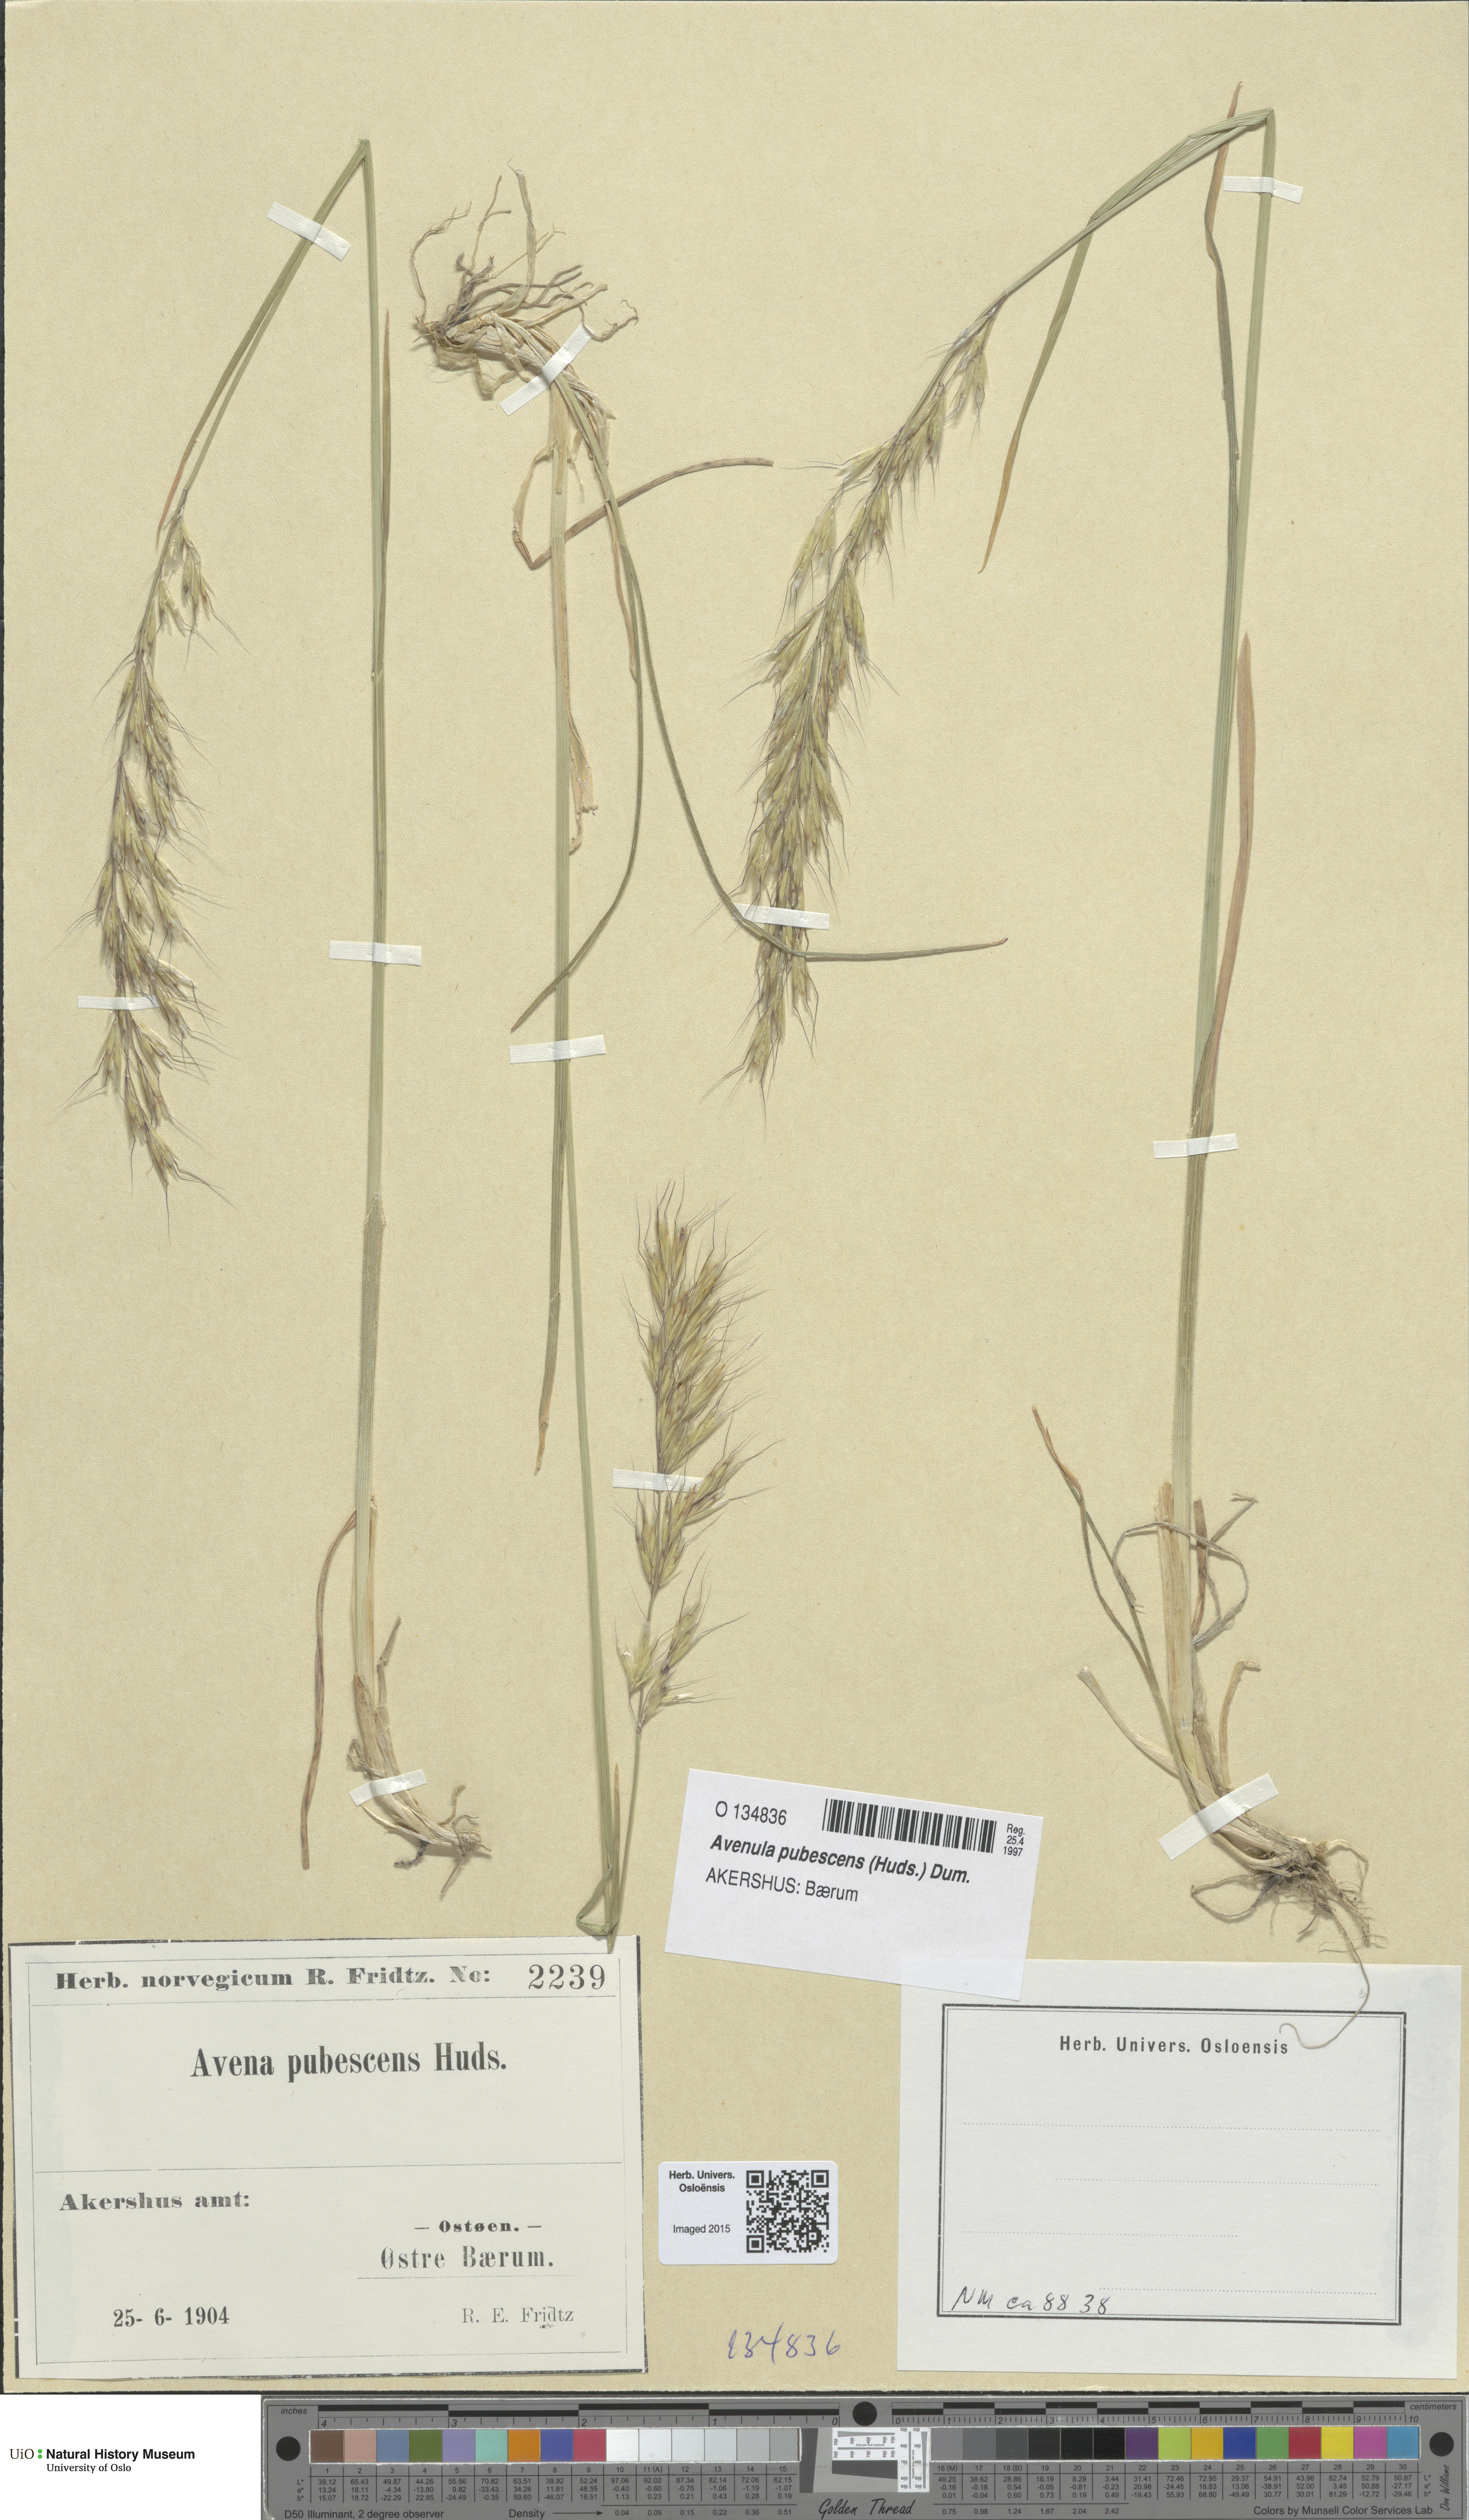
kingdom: Plantae
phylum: Tracheophyta
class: Liliopsida
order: Poales
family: Poaceae
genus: Avenula
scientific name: Avenula pubescens
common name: Downy alpine oatgrass
